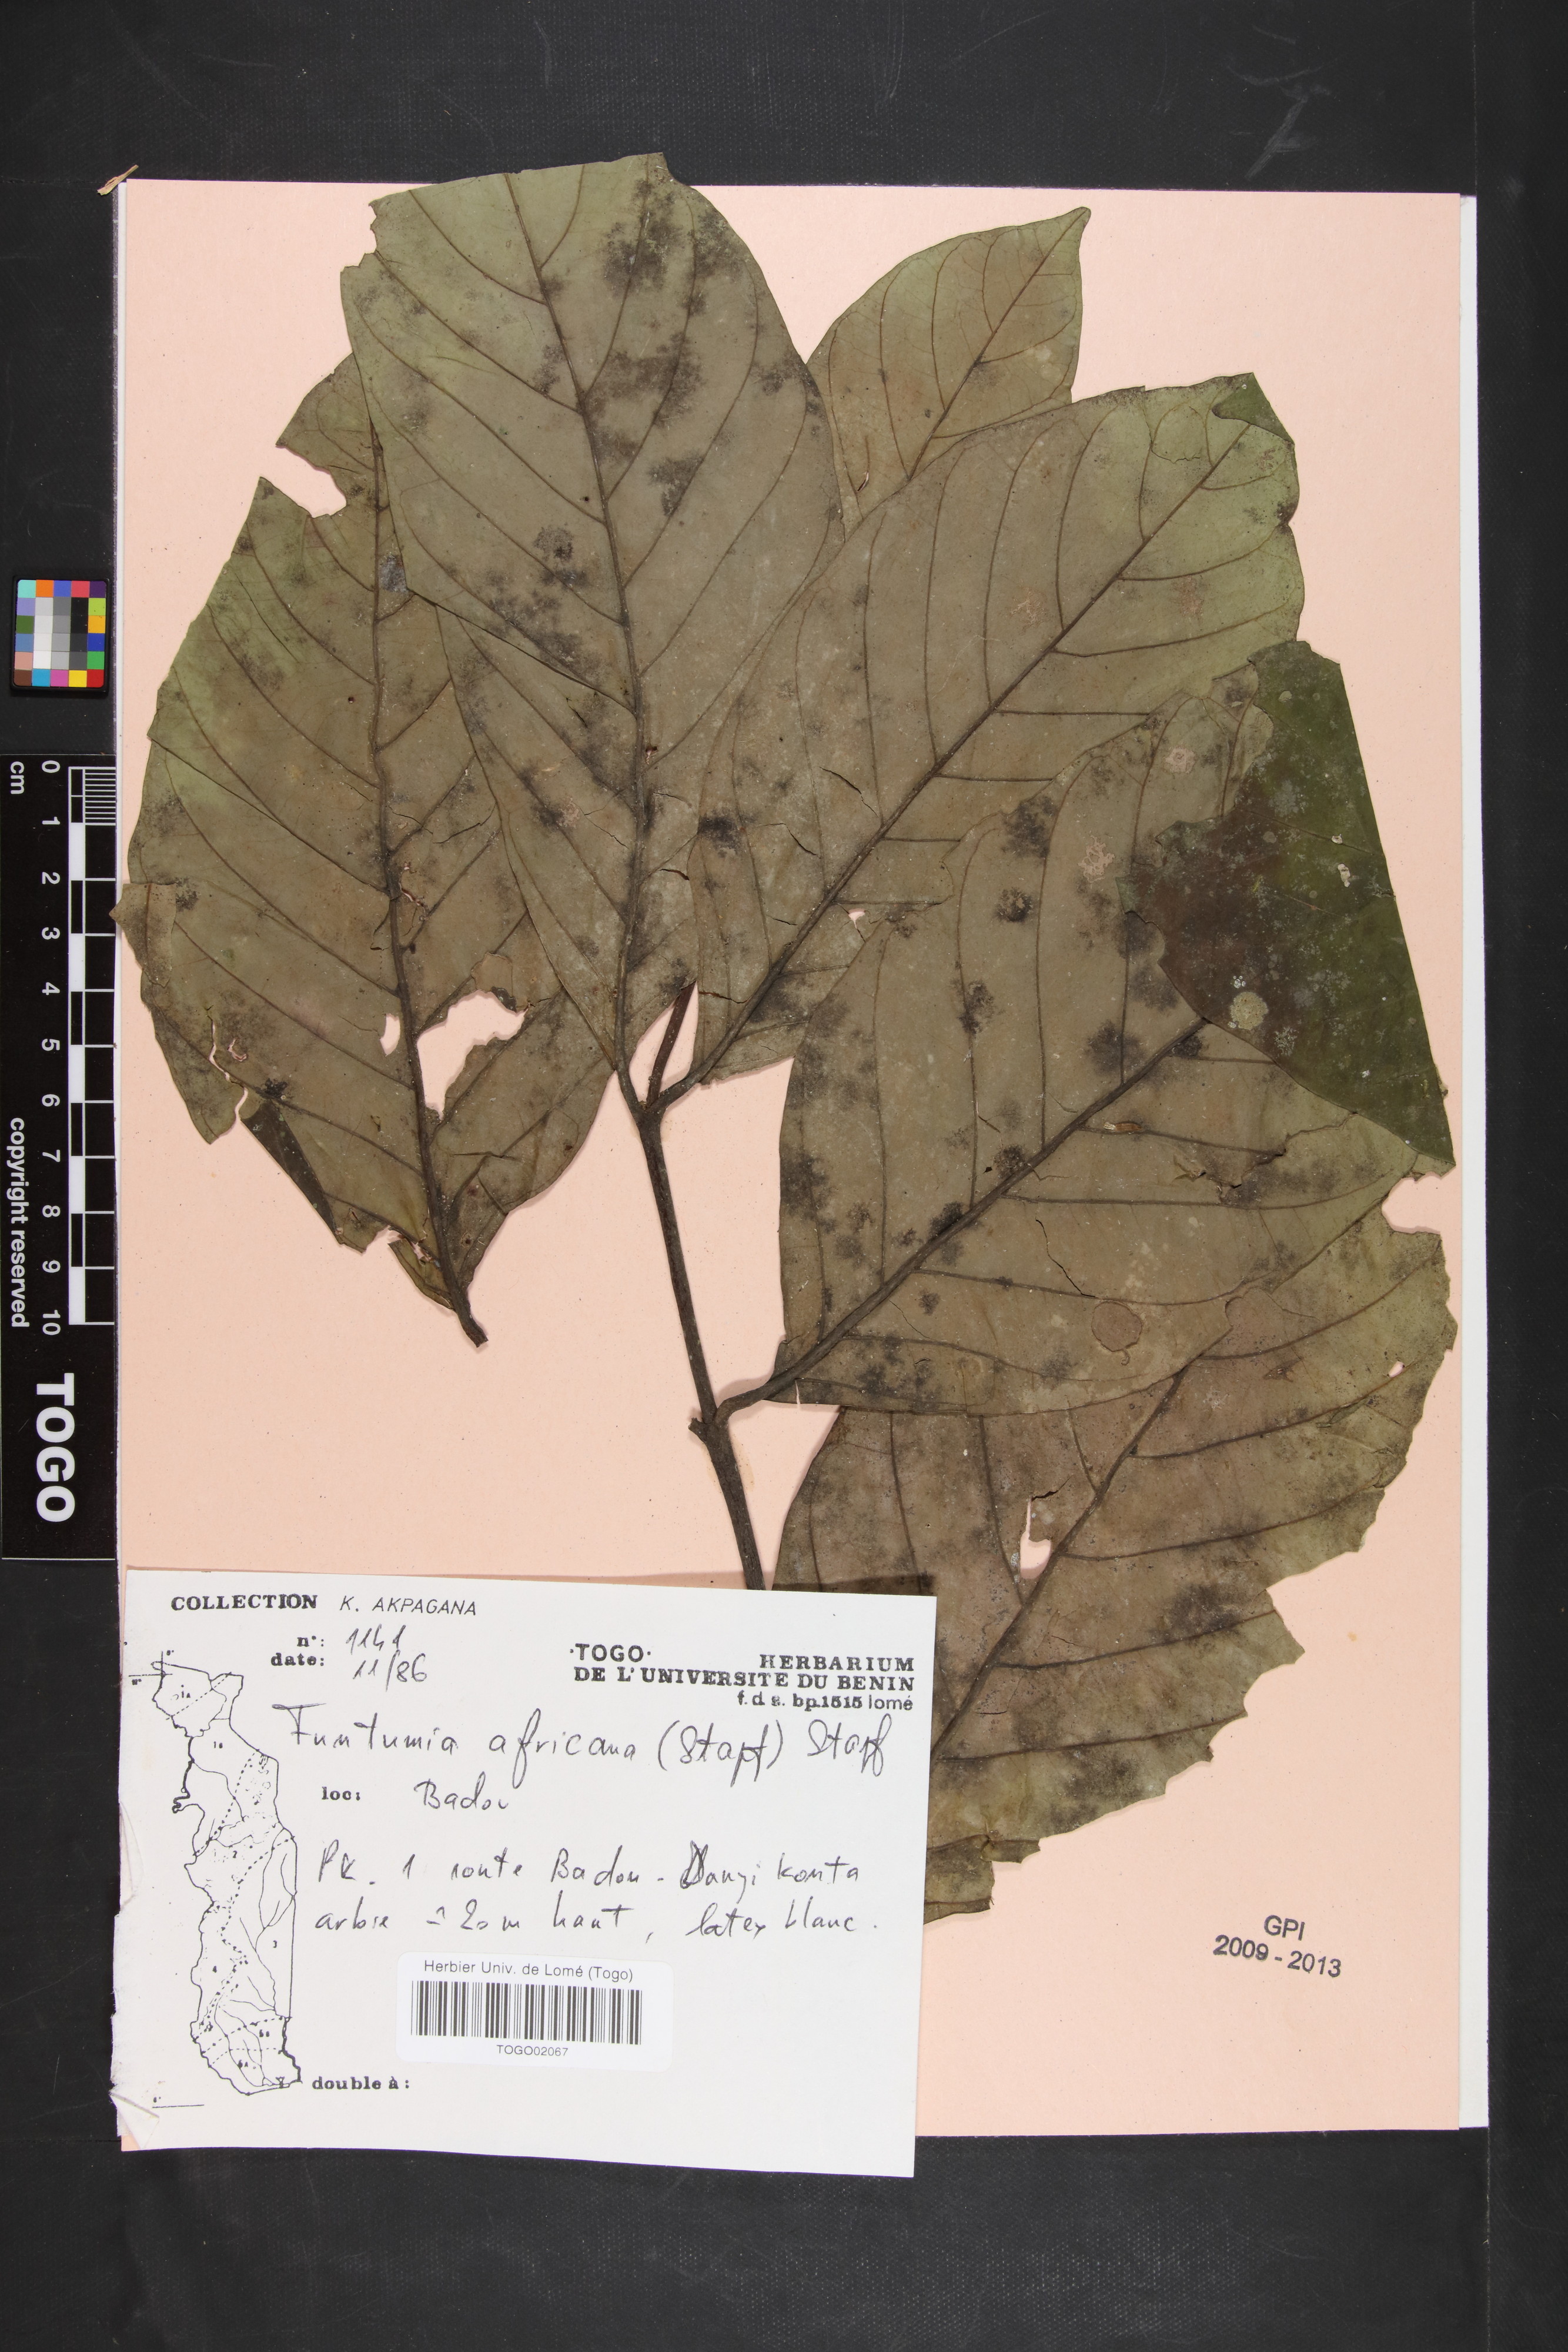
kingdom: Plantae
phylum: Tracheophyta
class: Magnoliopsida
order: Gentianales
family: Apocynaceae
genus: Funtumia
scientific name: Funtumia africana
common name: Lagos-rubber
